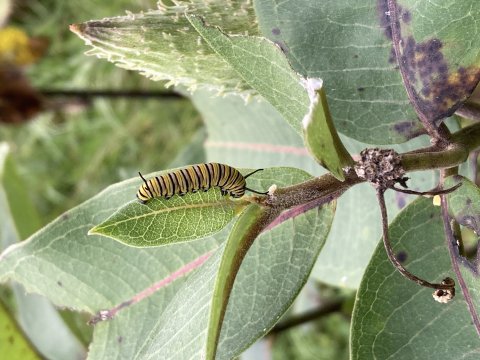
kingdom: Animalia
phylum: Arthropoda
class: Insecta
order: Lepidoptera
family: Nymphalidae
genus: Danaus
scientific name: Danaus plexippus
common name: Monarch
